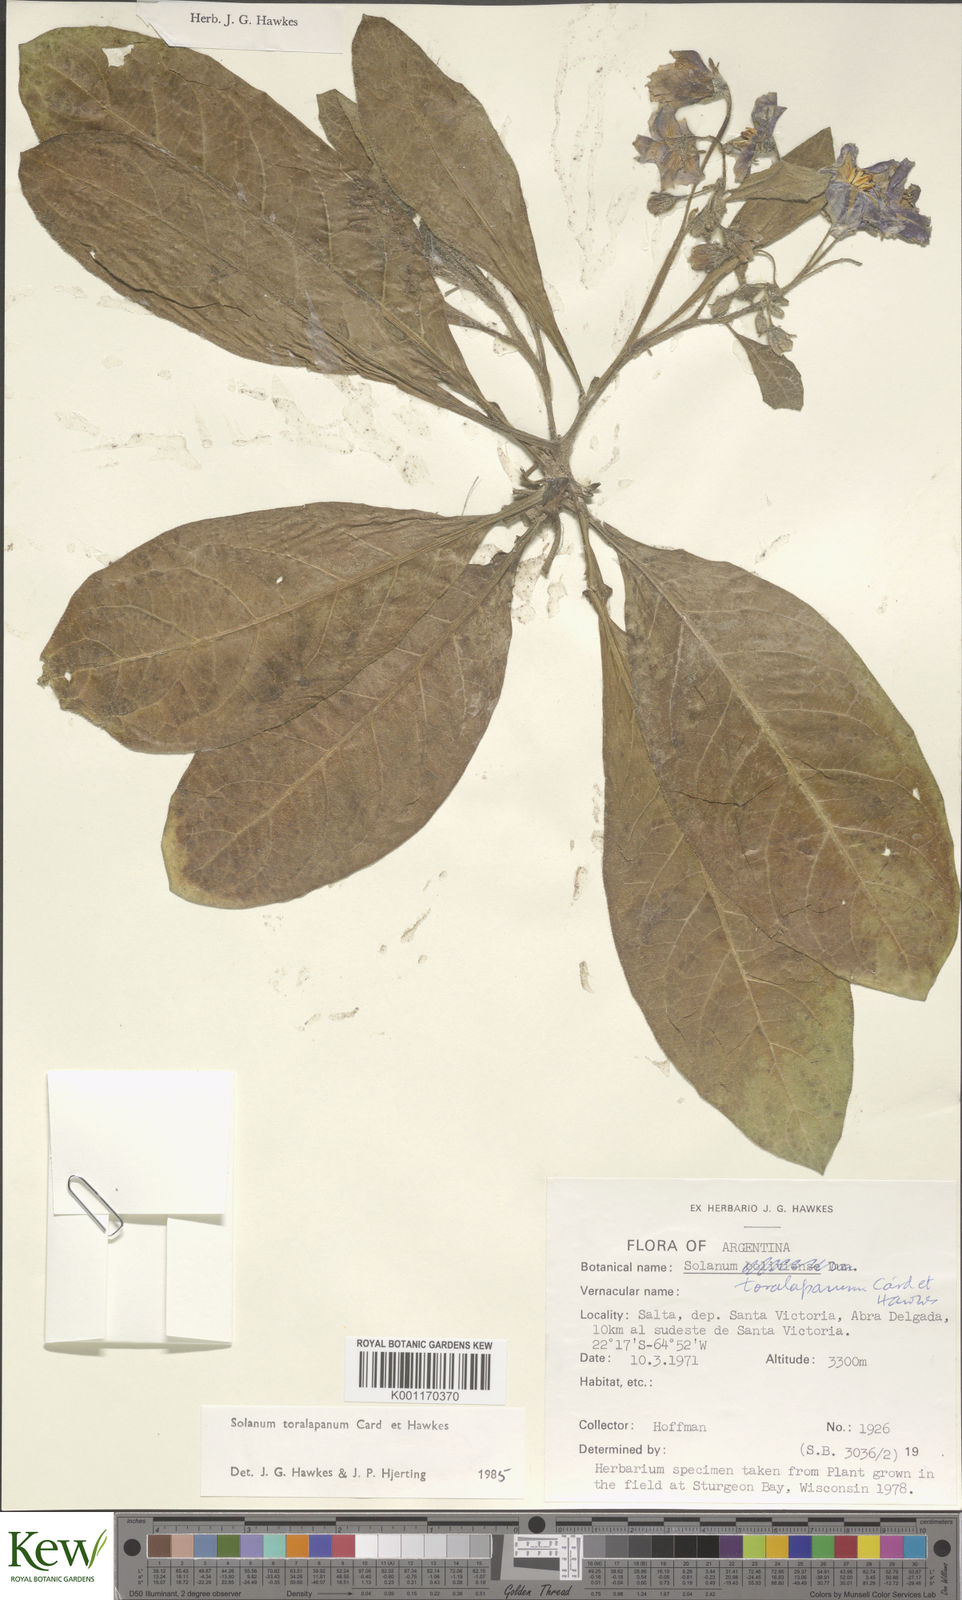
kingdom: Plantae
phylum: Tracheophyta
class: Magnoliopsida
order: Solanales
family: Solanaceae
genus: Solanum
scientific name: Solanum
